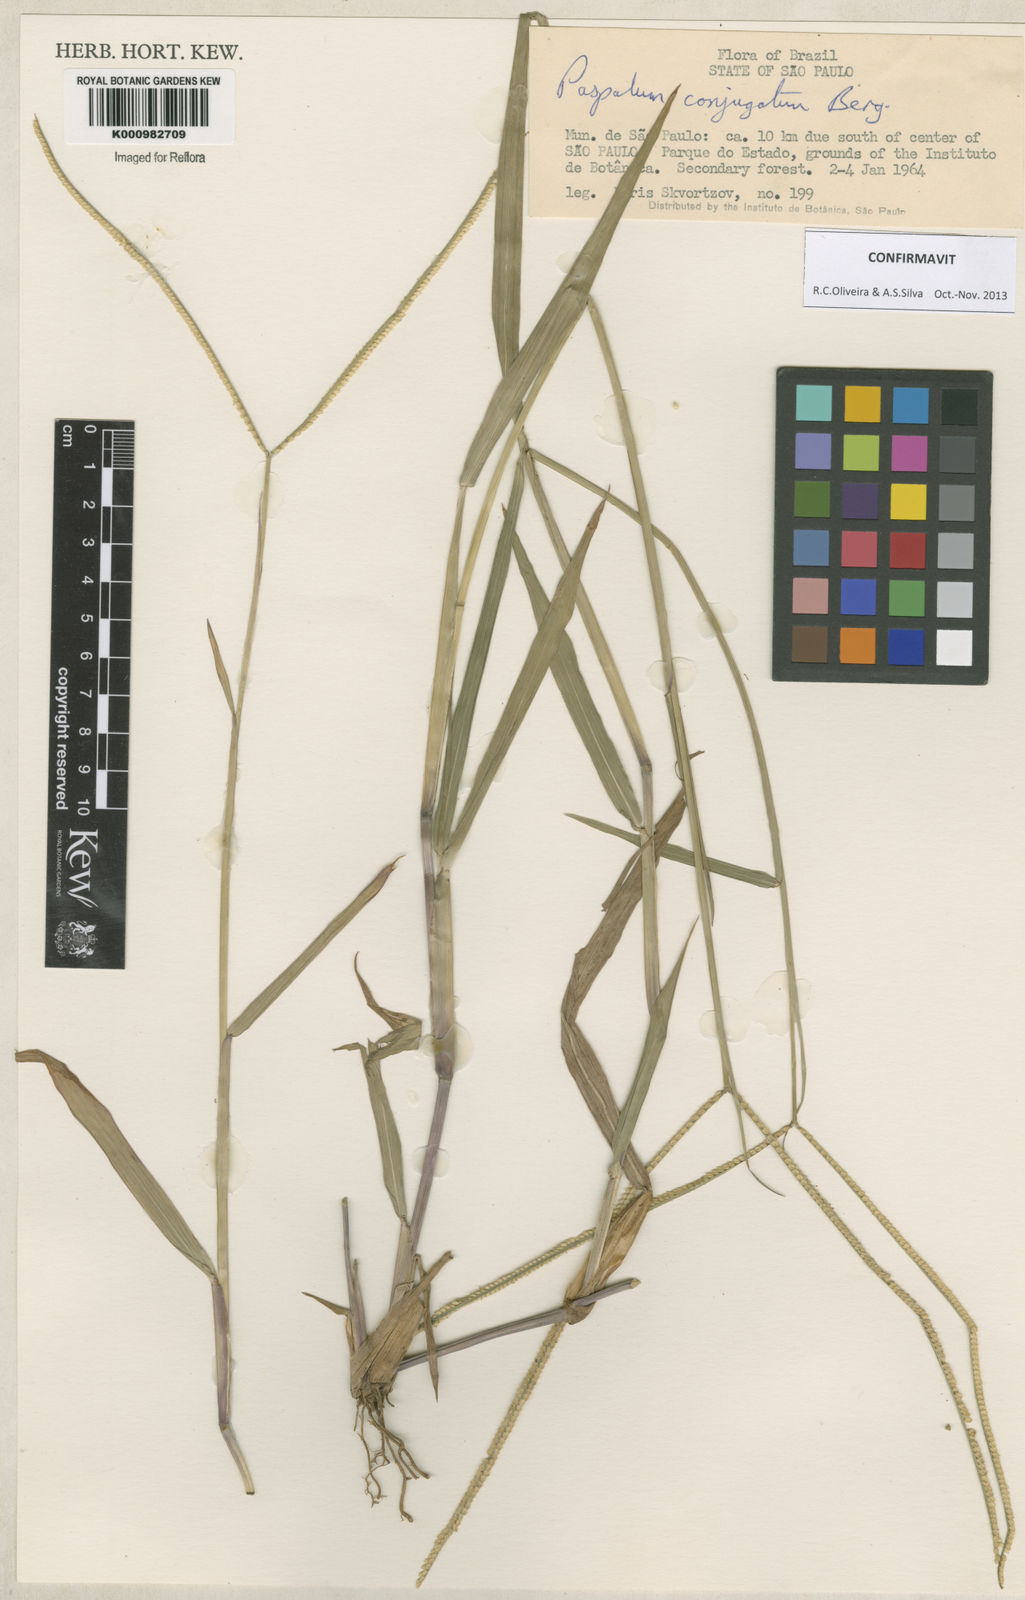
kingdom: Plantae
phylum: Tracheophyta
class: Liliopsida
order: Poales
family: Poaceae
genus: Paspalum
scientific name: Paspalum conjugatum
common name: Hilograss
